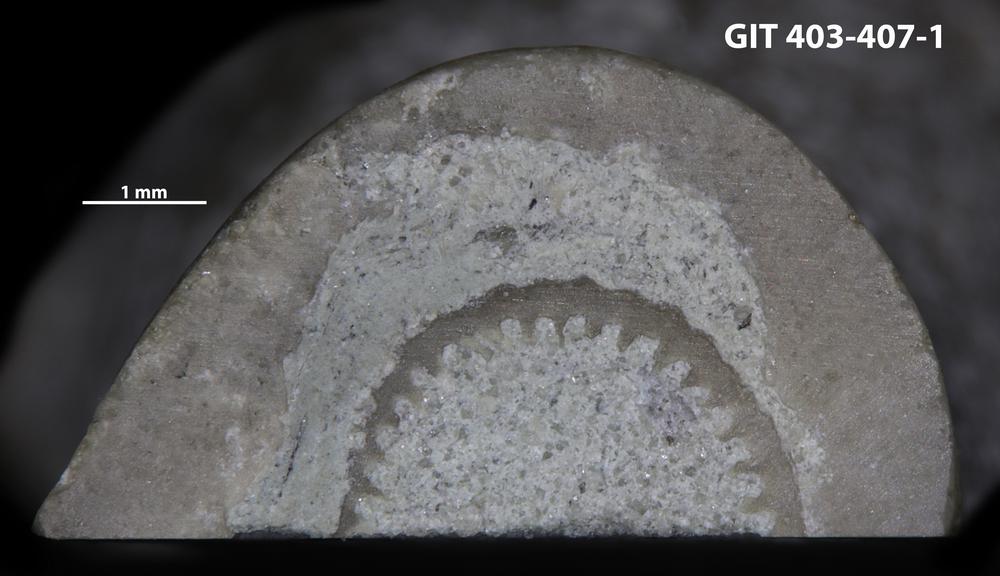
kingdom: Animalia
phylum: Cnidaria
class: Anthozoa
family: Tryplasmatidae
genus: Tryplasma
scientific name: Tryplasma
